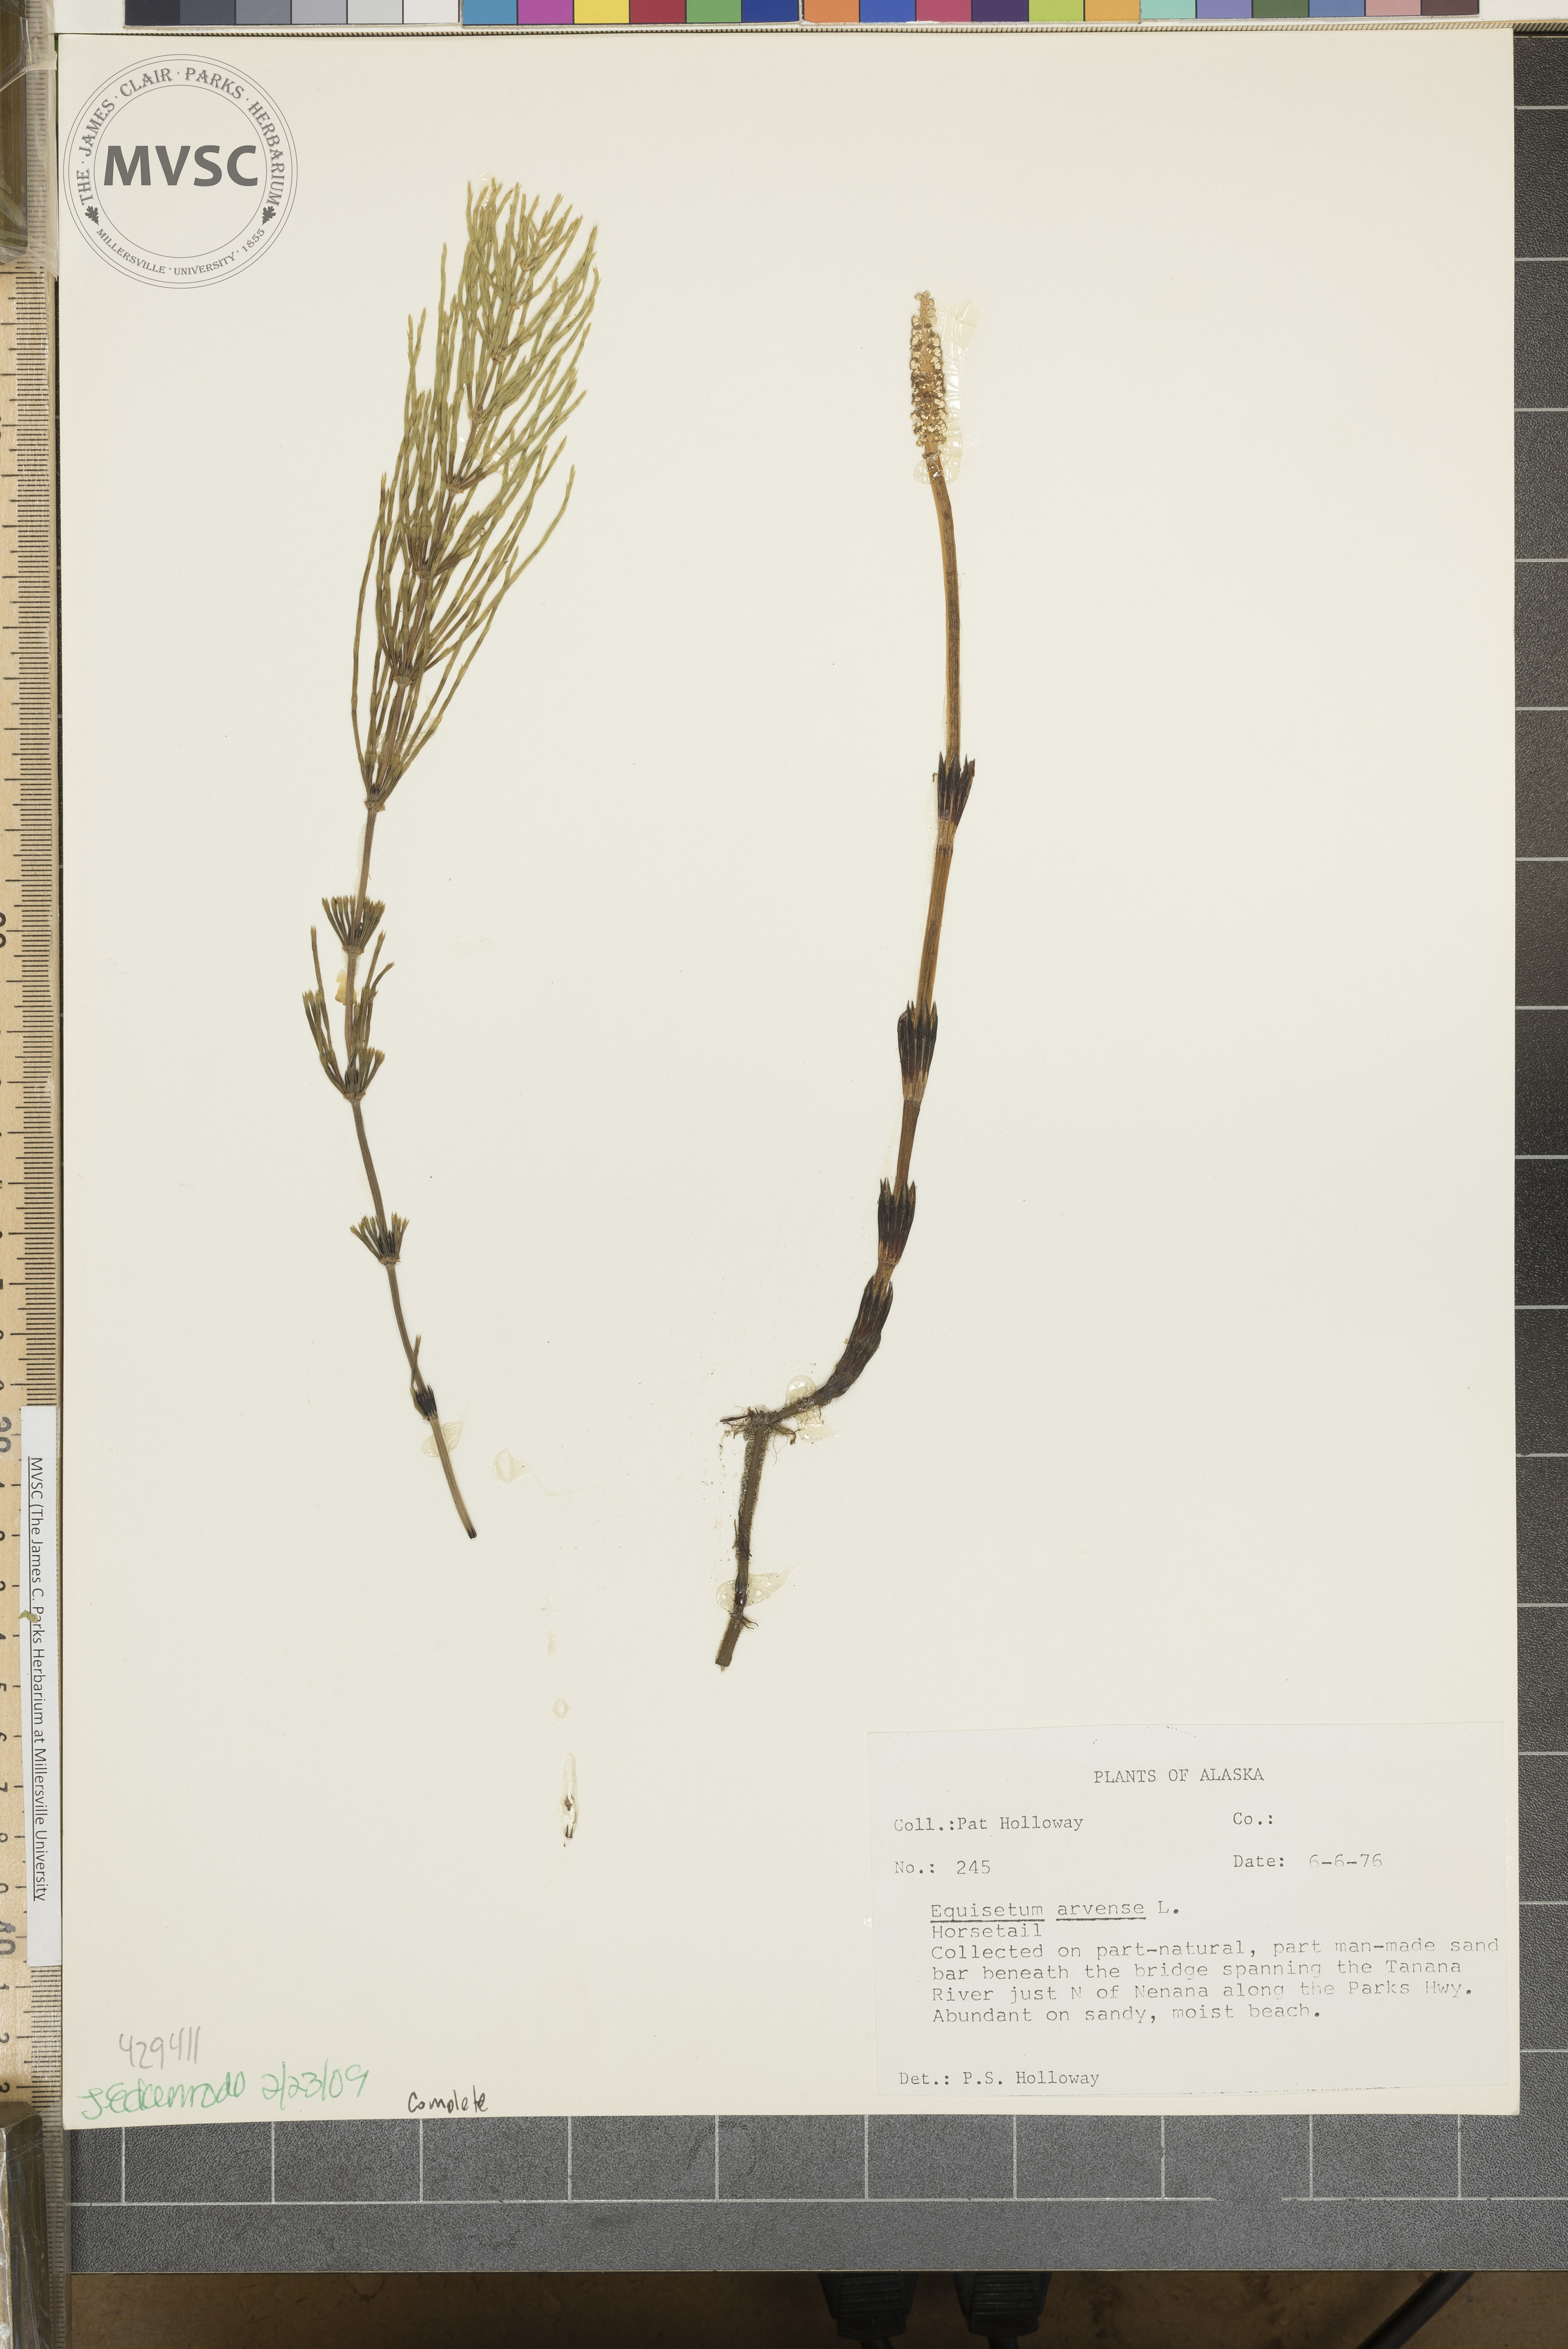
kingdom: Plantae
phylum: Tracheophyta
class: Polypodiopsida
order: Equisetales
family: Equisetaceae
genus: Equisetum
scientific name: Equisetum arvense
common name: Field horsetail
